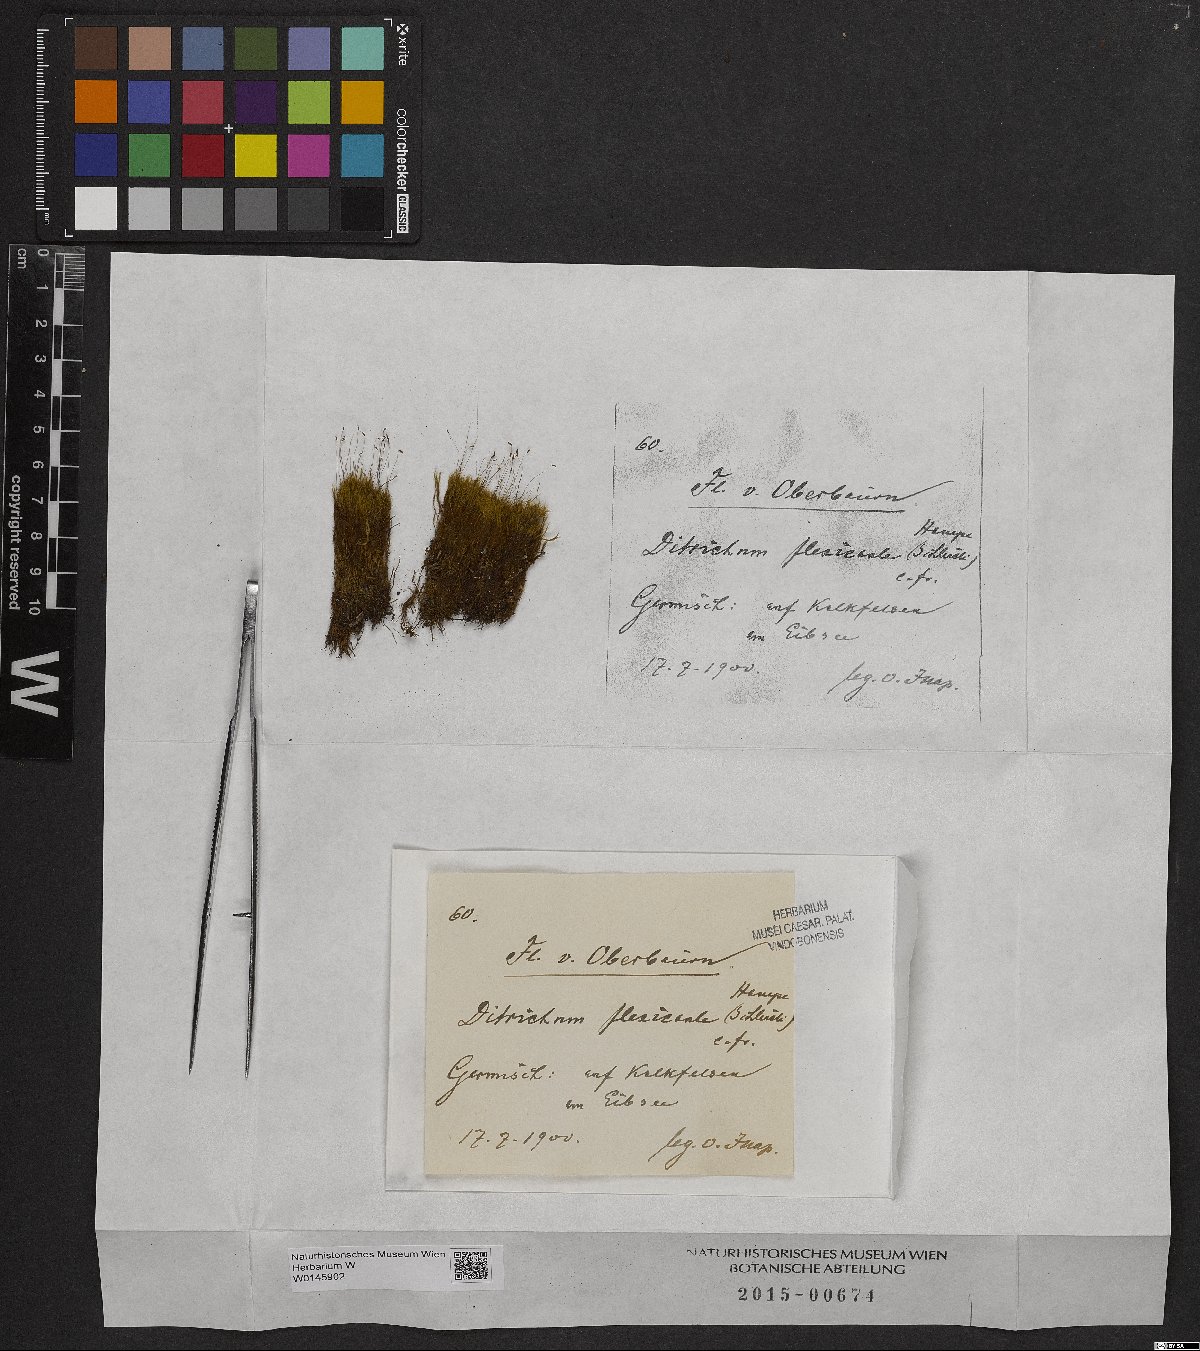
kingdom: Plantae
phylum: Bryophyta
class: Bryopsida
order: Scouleriales
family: Flexitrichaceae
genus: Flexitrichum
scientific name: Flexitrichum flexicaule
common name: Bendy ditrichum
